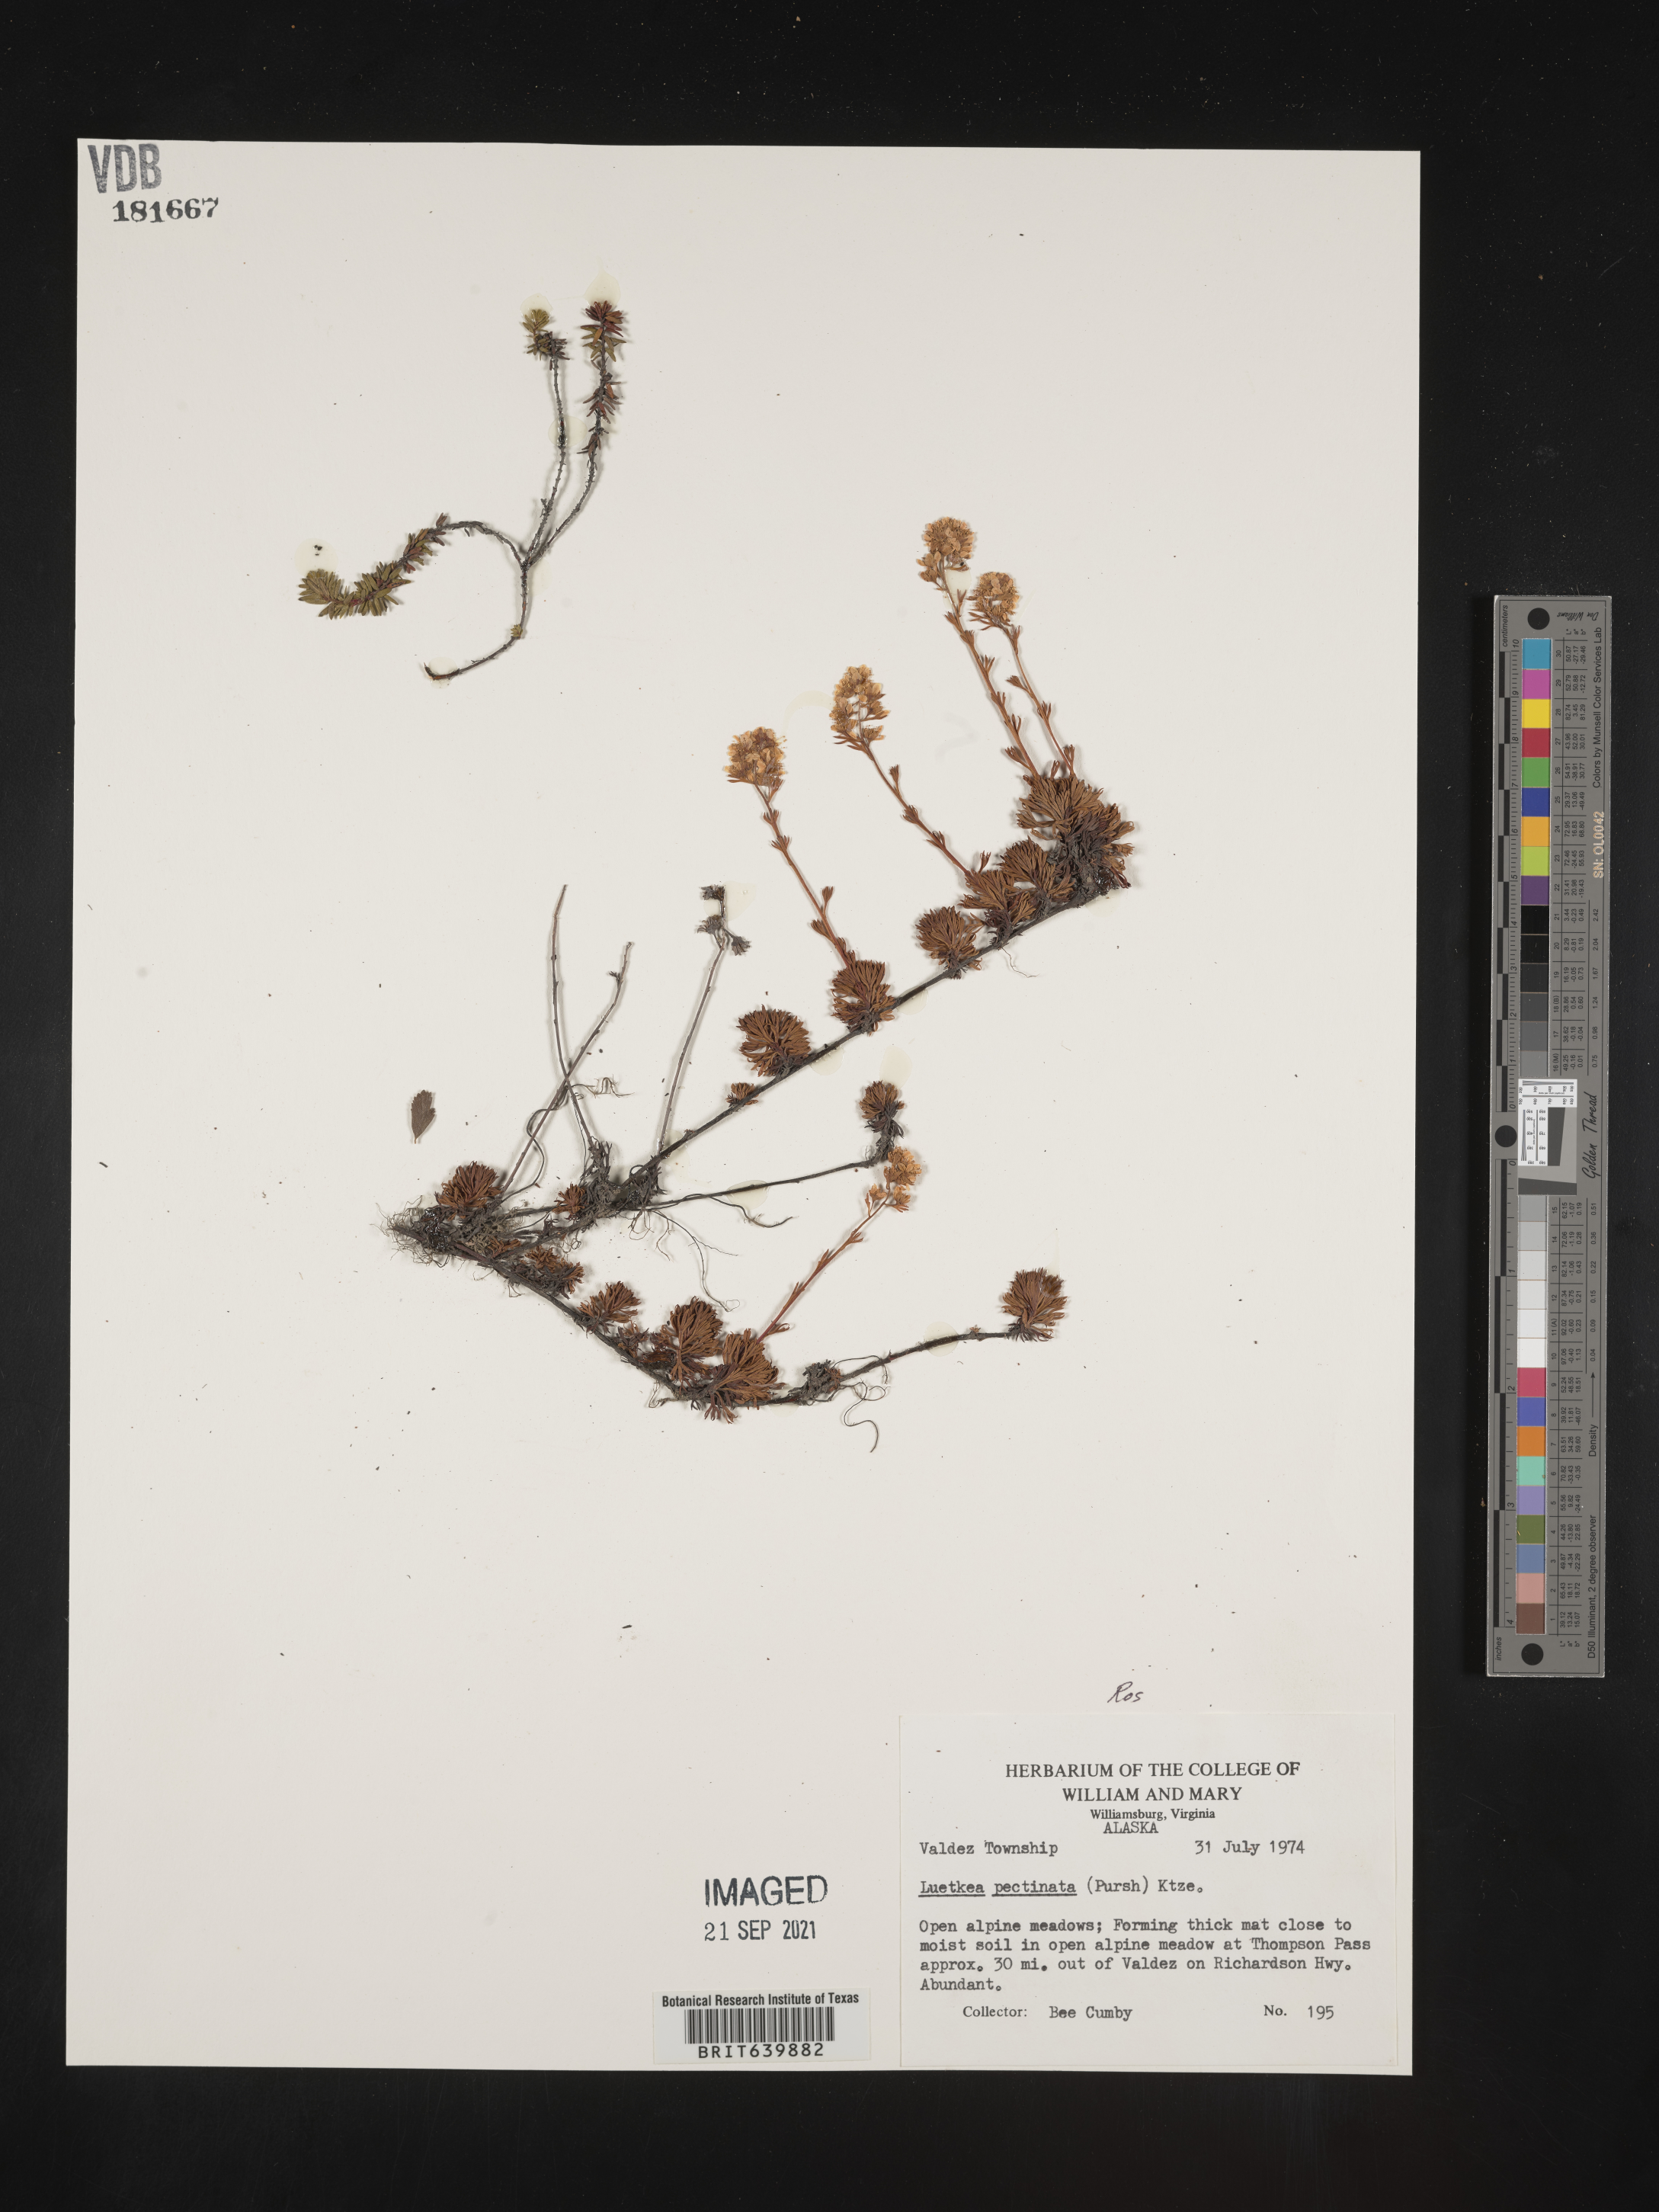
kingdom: Plantae
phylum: Tracheophyta
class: Magnoliopsida
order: Rosales
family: Rosaceae
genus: Luetkea
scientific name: Luetkea
